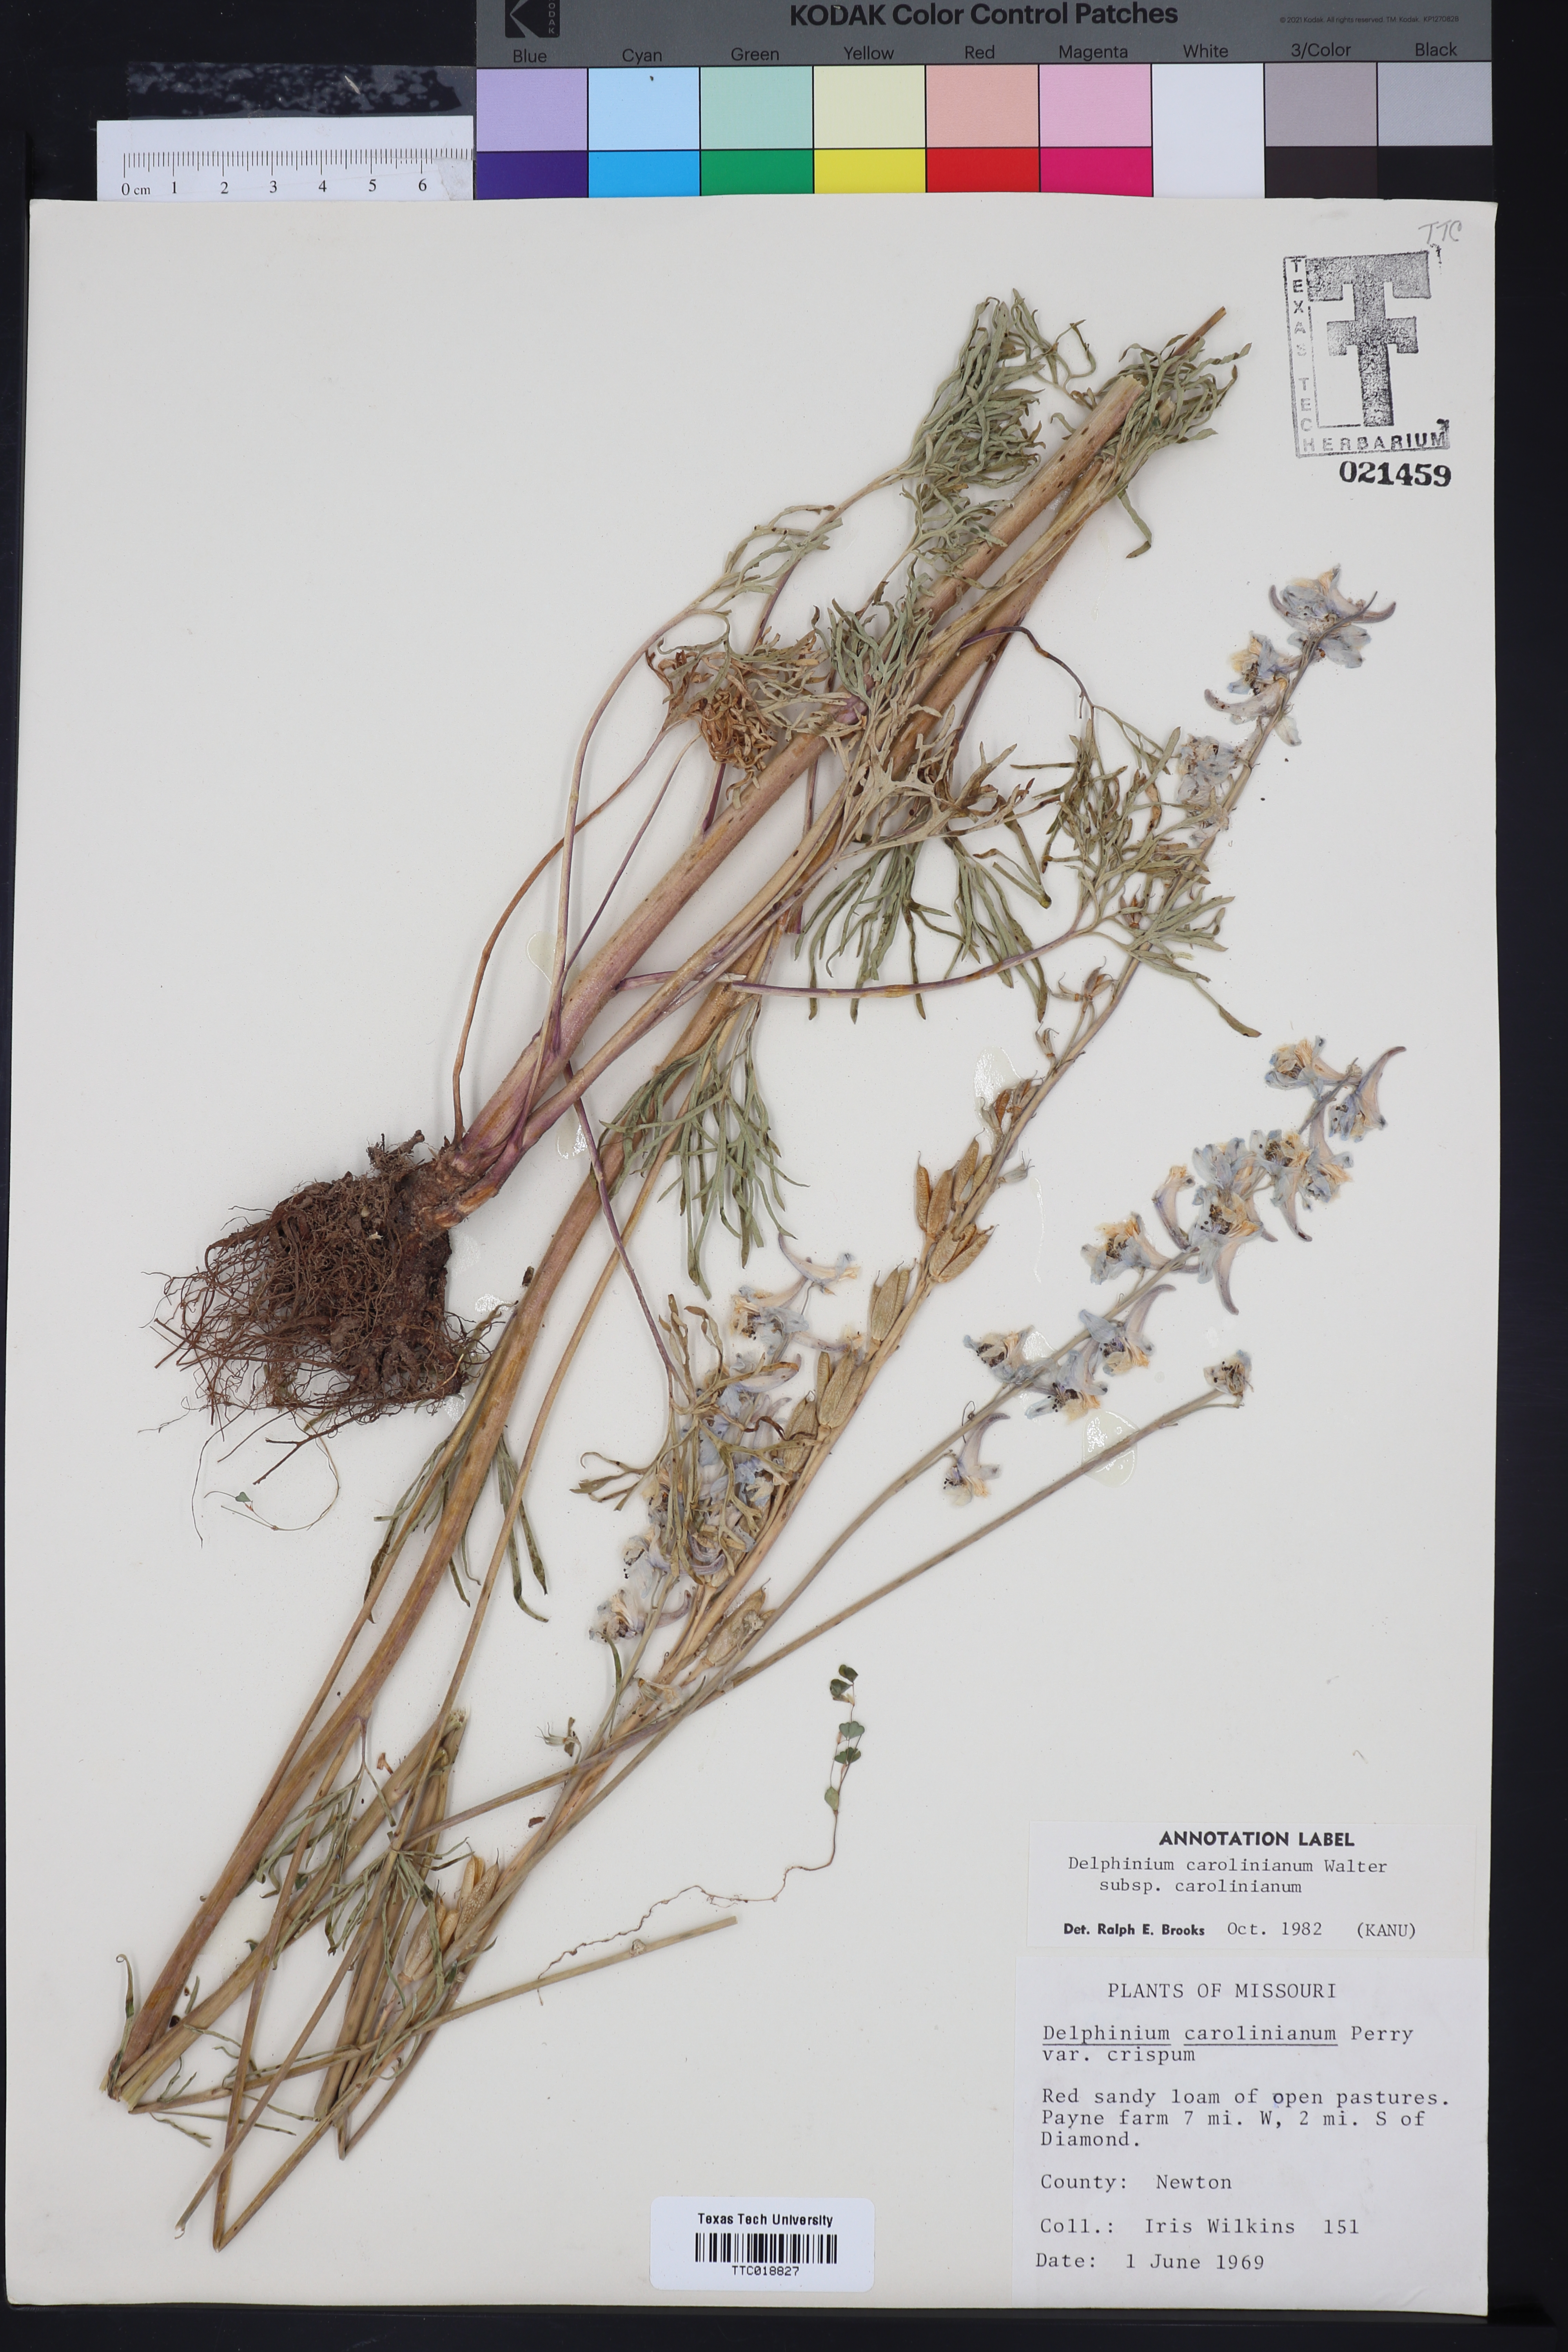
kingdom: Plantae
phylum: Tracheophyta
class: Magnoliopsida
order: Ranunculales
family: Ranunculaceae
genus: Delphinium
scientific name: Delphinium carolinianum
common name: Carolina larkspur
